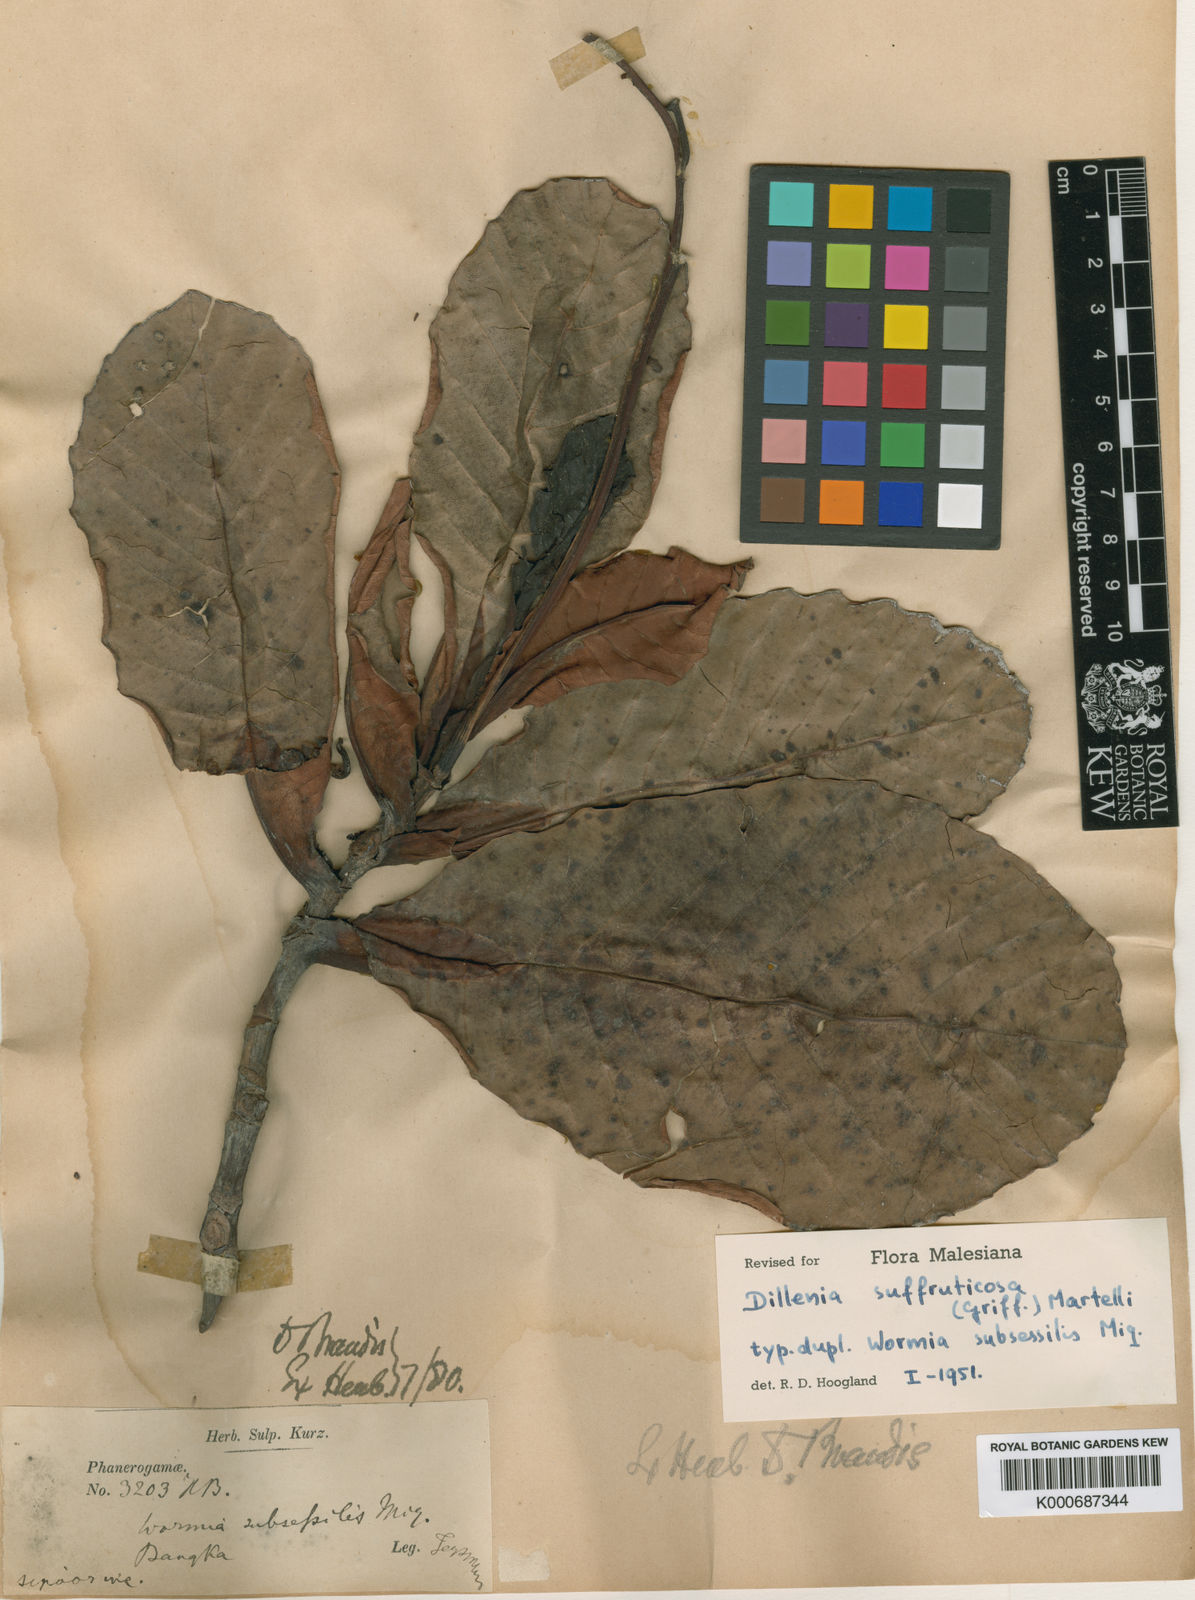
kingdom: Plantae
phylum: Tracheophyta
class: Magnoliopsida
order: Dilleniales
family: Dilleniaceae
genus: Dillenia
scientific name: Dillenia suffruticosa
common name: Shrubby dillenia
